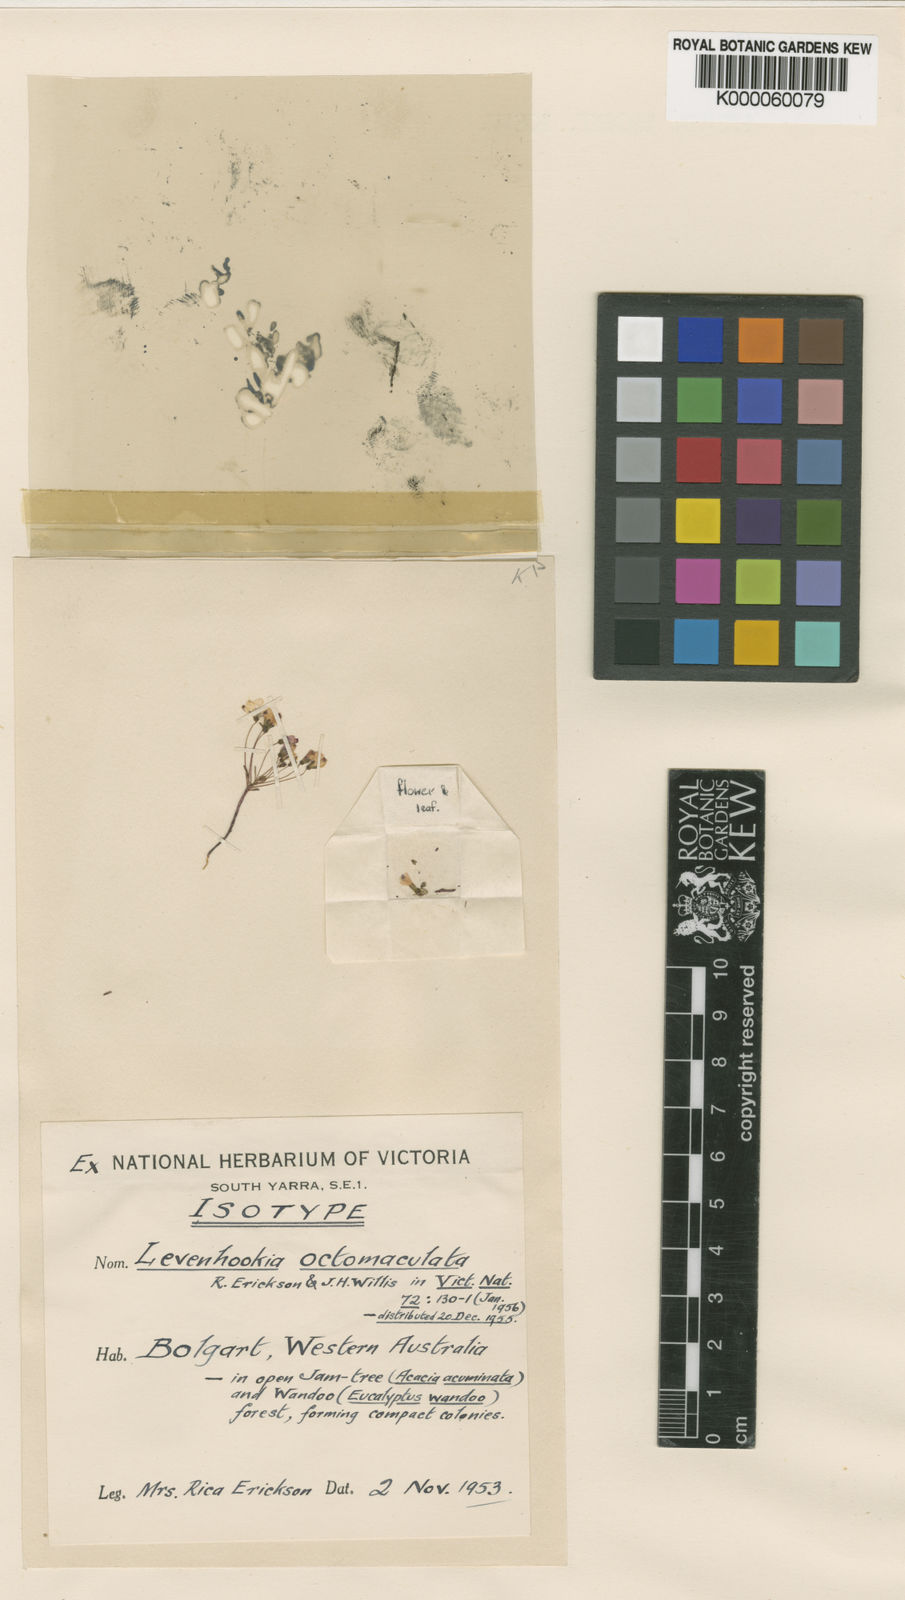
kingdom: Plantae
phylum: Tracheophyta
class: Magnoliopsida
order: Asterales
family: Stylidiaceae
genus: Levenhookia
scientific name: Levenhookia octomaculata
